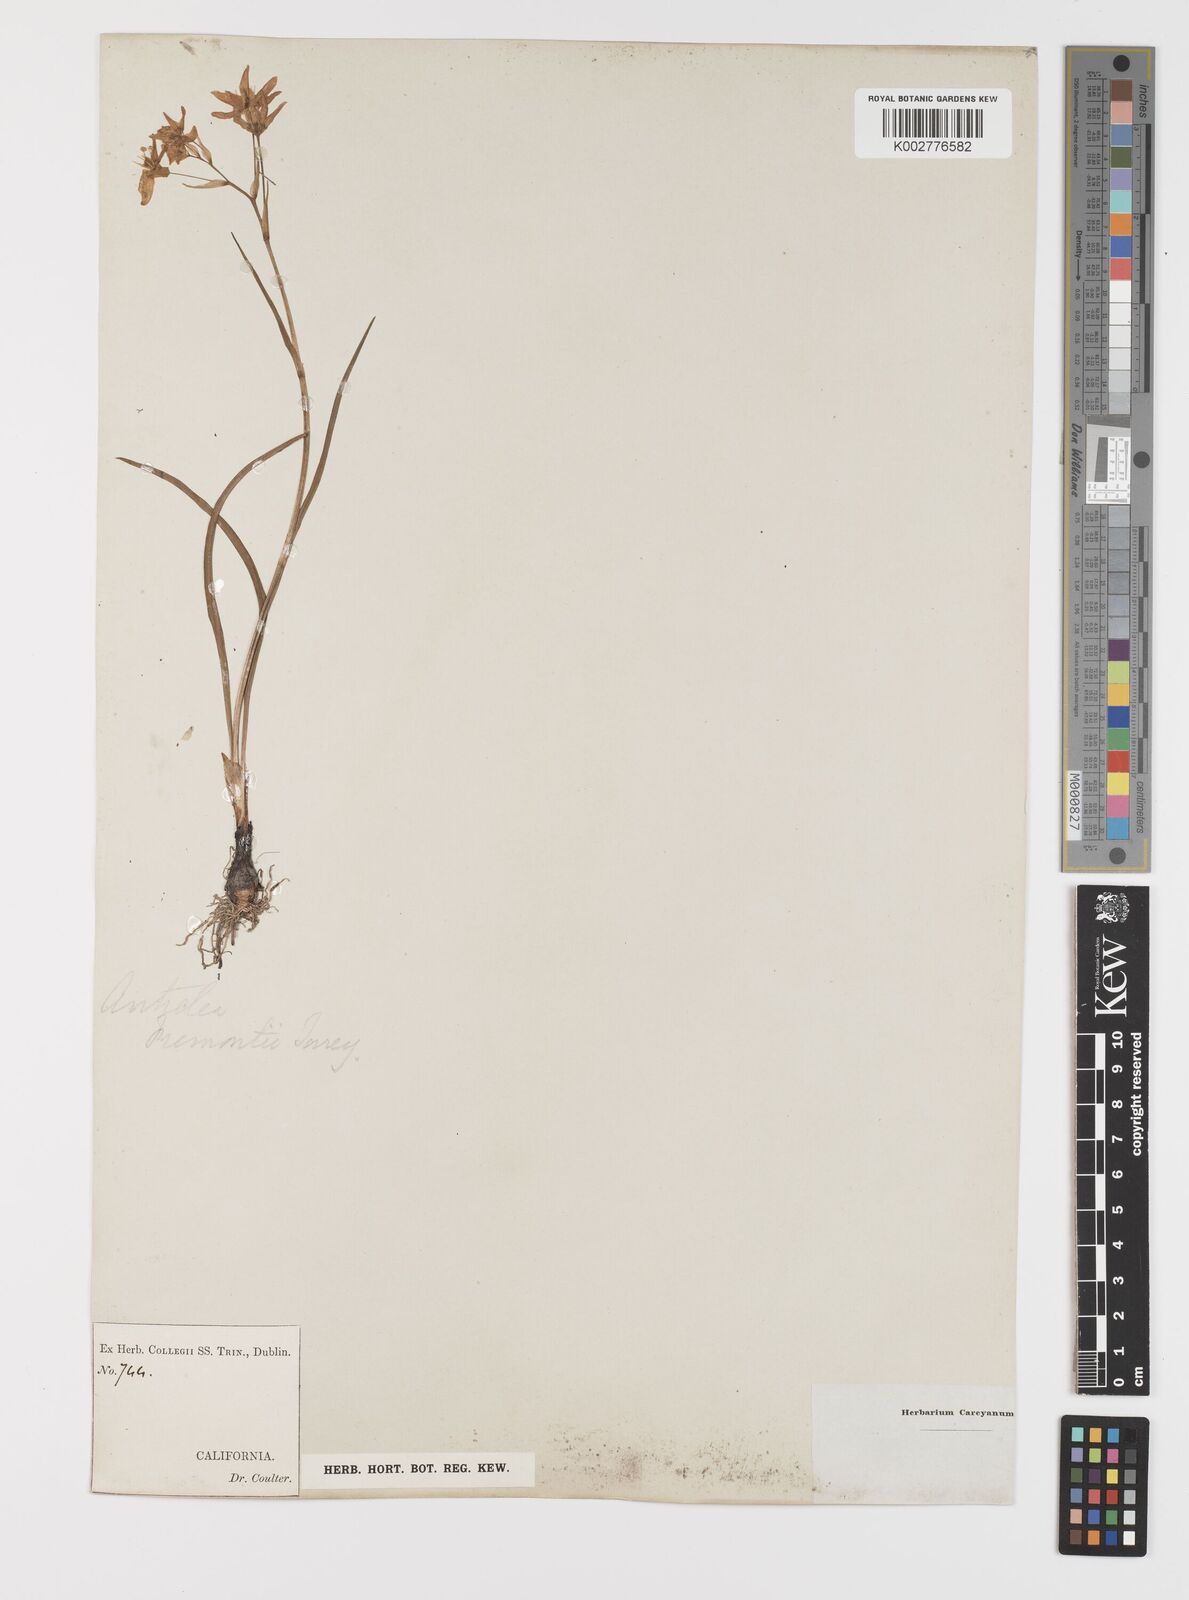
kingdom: Plantae
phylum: Tracheophyta
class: Liliopsida
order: Liliales
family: Melanthiaceae
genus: Toxicoscordion
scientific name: Toxicoscordion fremontii
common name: Fremont's death camas
